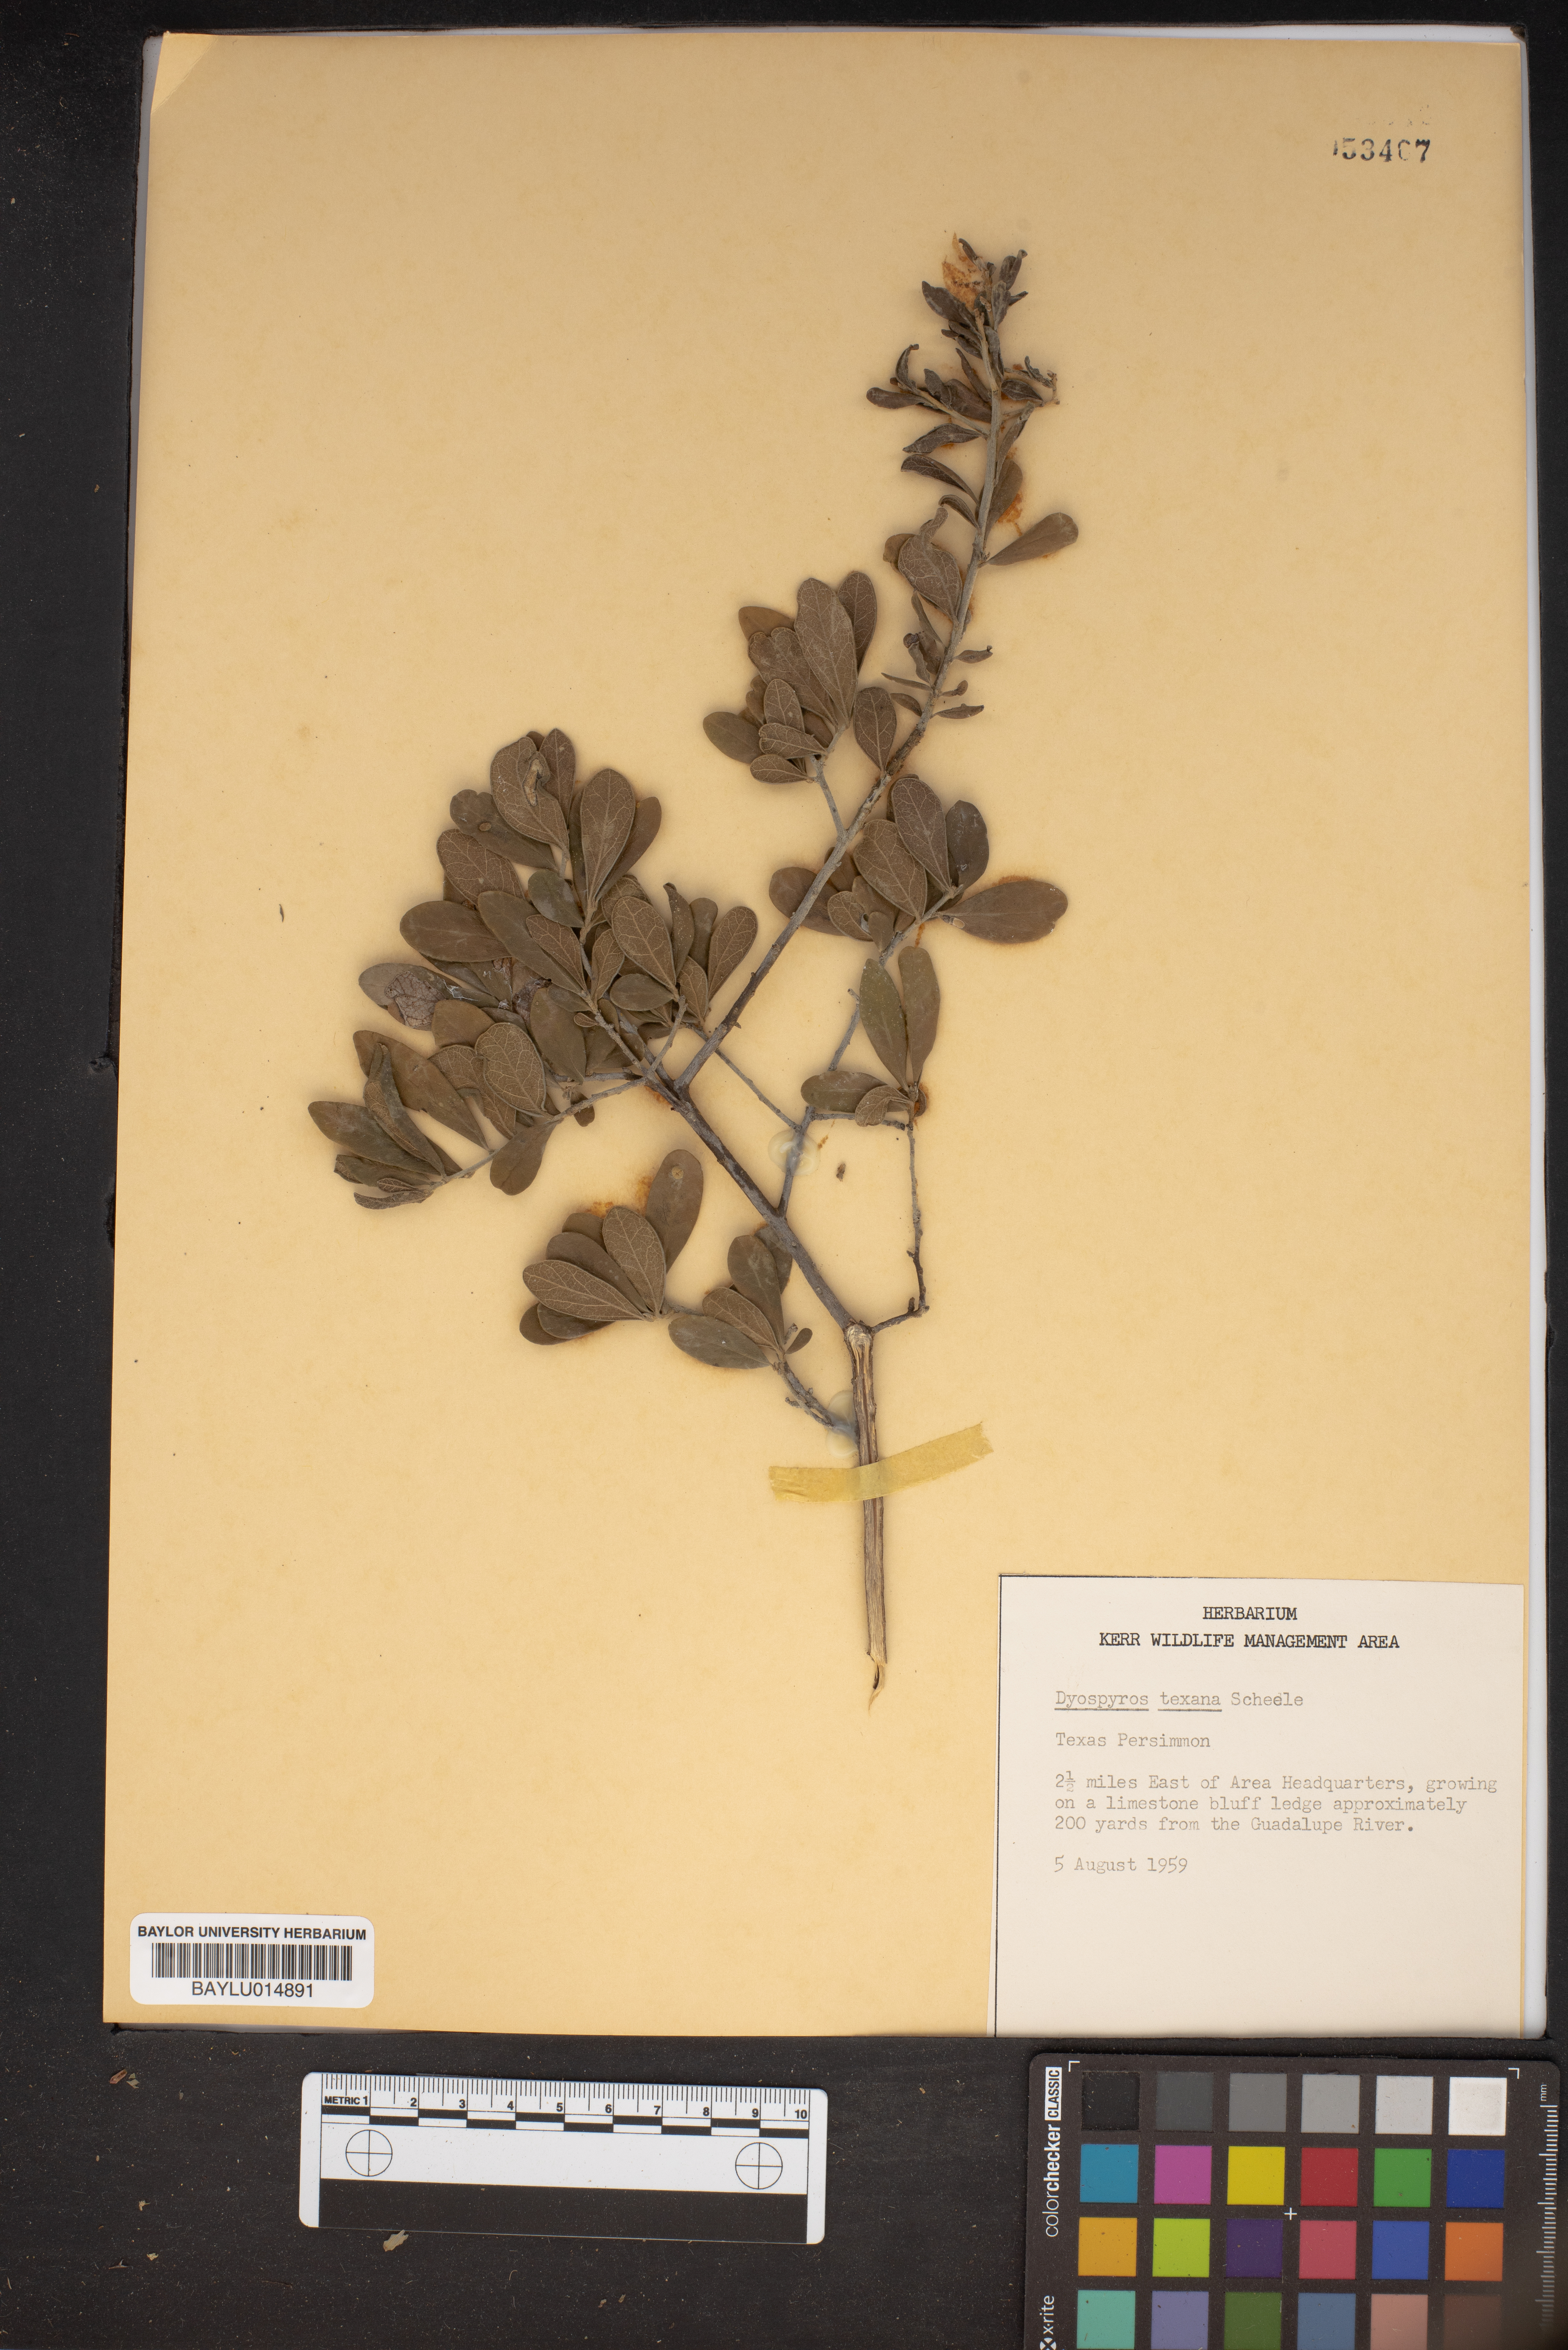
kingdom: Plantae
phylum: Tracheophyta
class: Magnoliopsida
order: Ericales
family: Ebenaceae
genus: Diospyros
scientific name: Diospyros texana
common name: Texas persimmon
